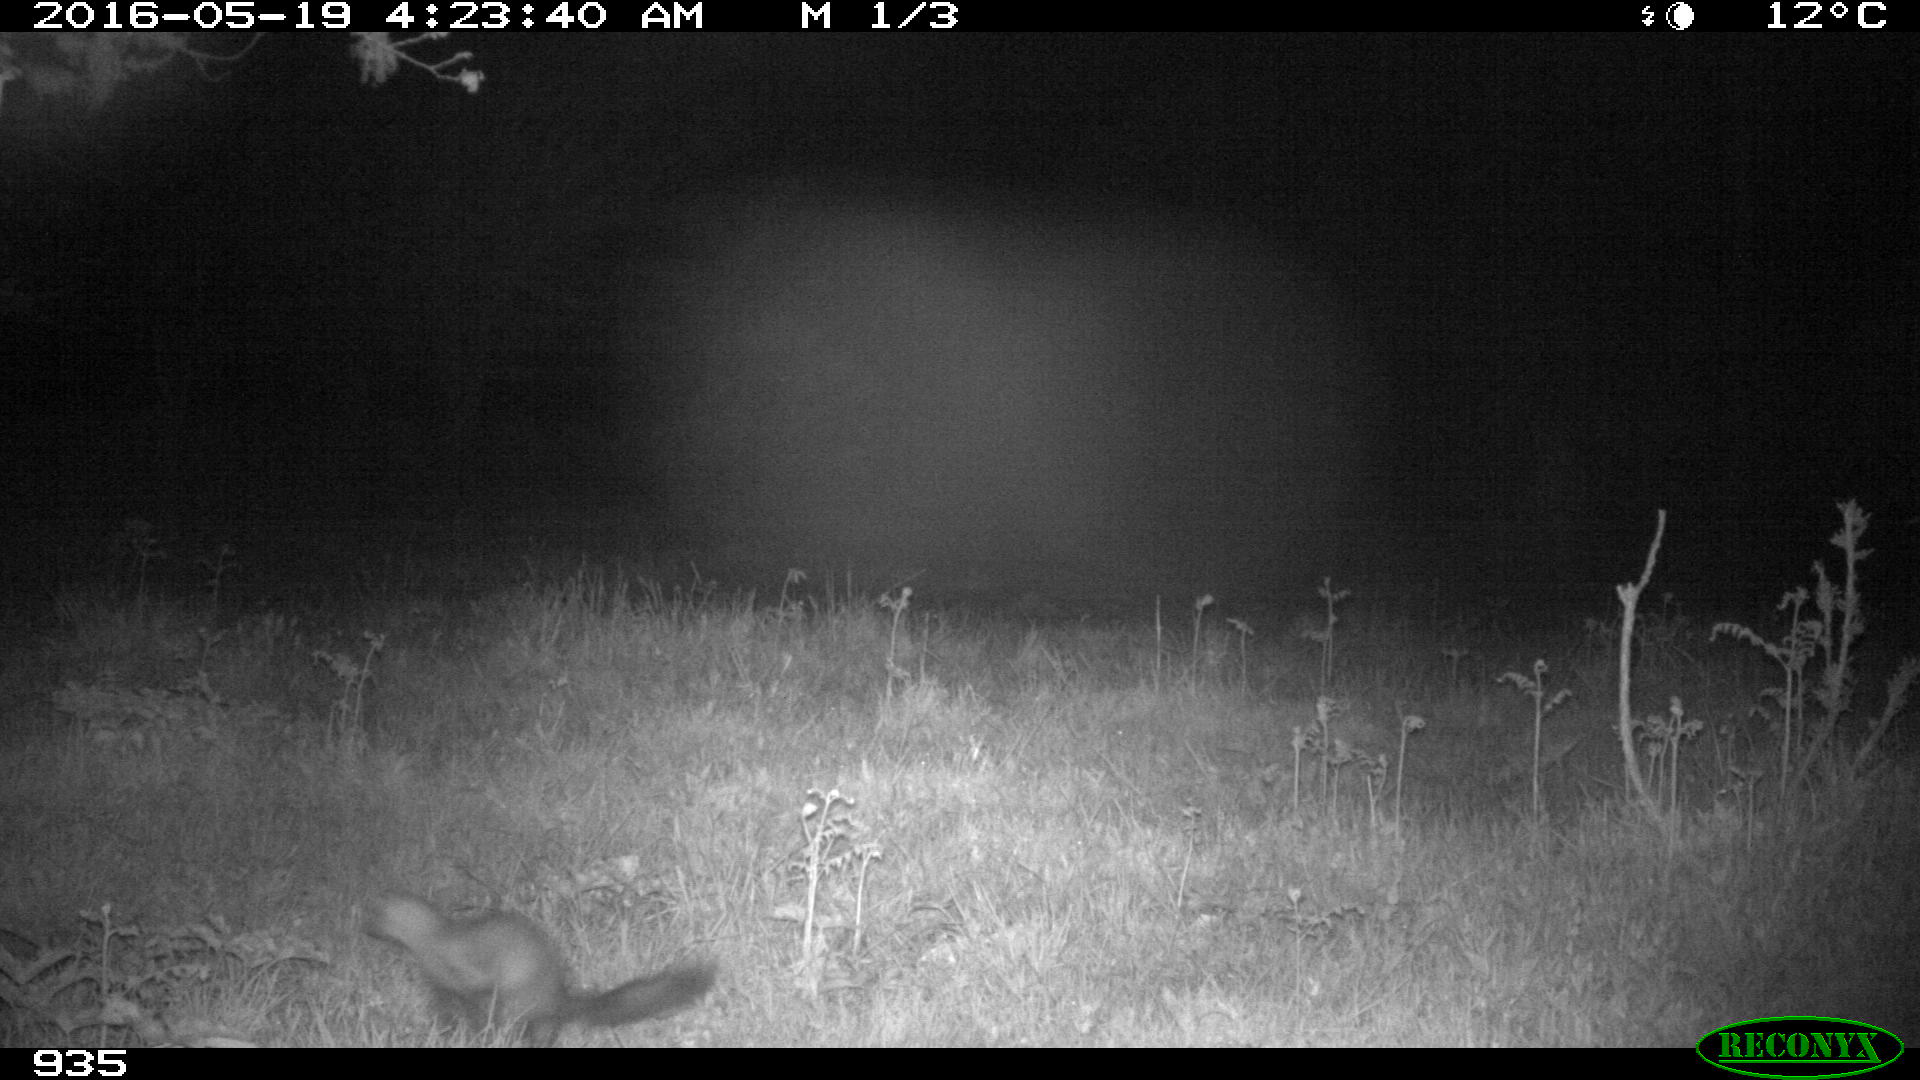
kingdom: Animalia
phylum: Chordata
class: Mammalia
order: Carnivora
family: Mustelidae
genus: Martes
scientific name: Martes foina
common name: Beech marten
